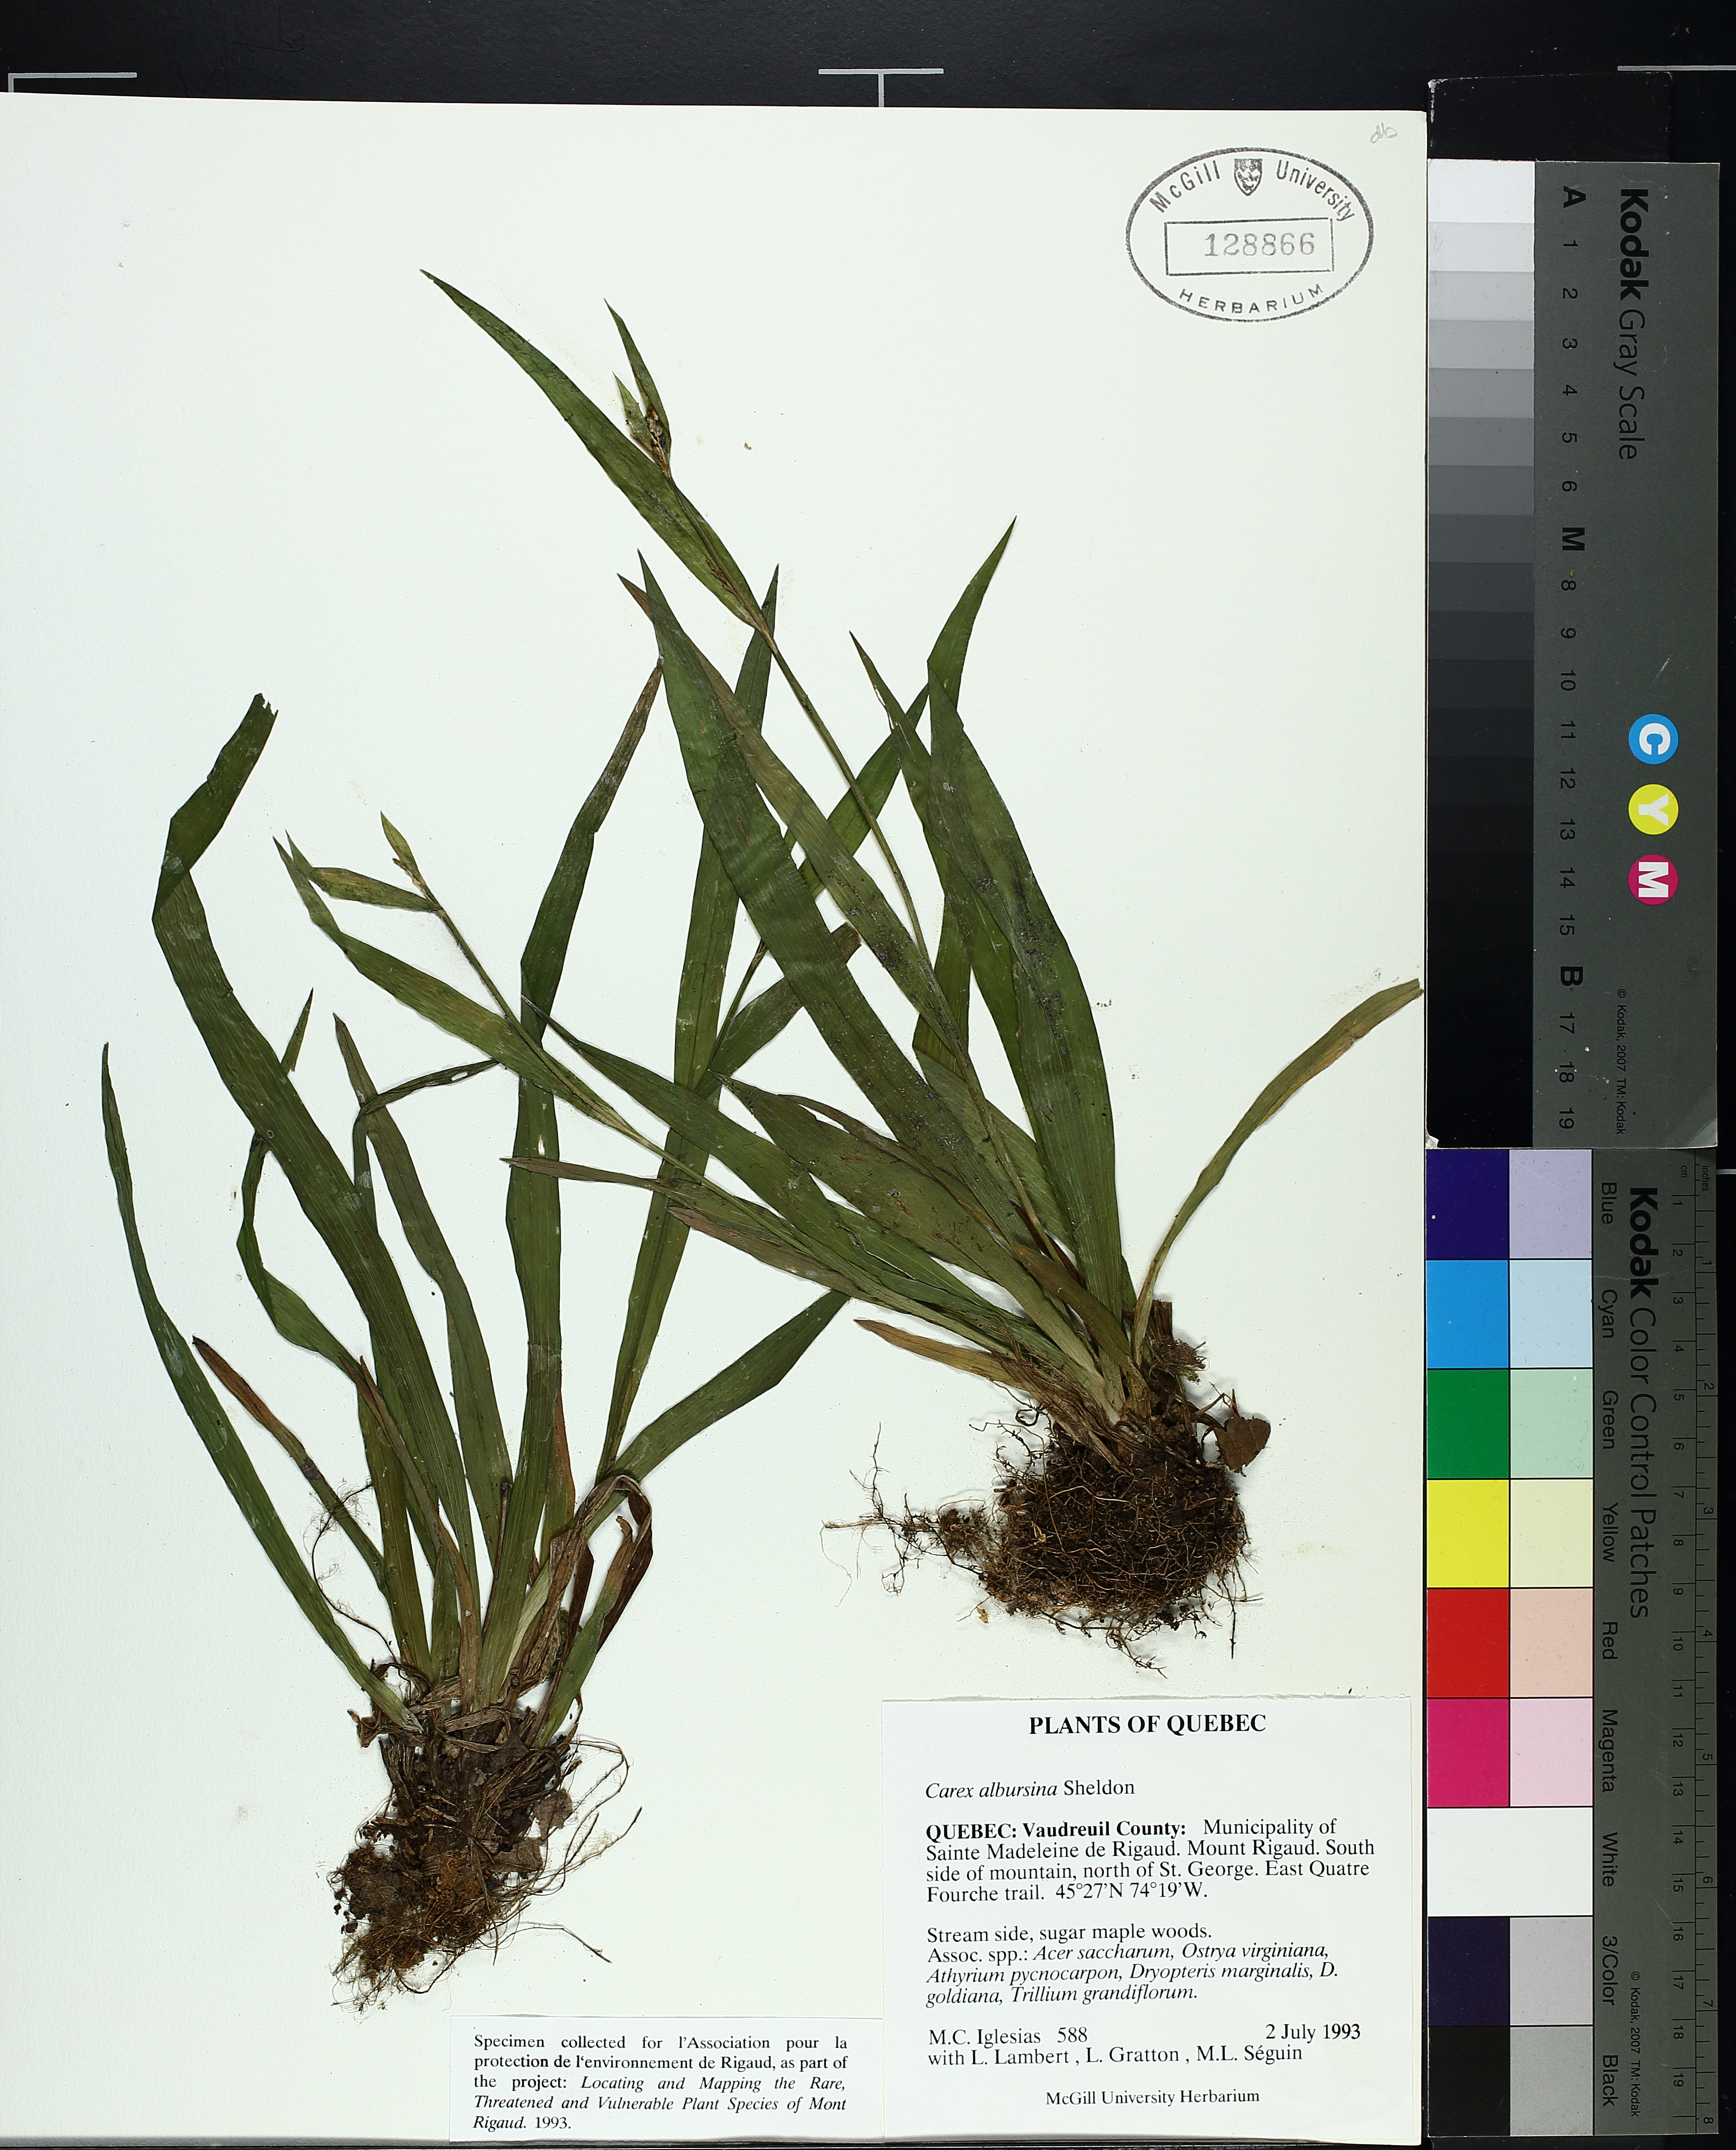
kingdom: Plantae
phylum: Tracheophyta
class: Liliopsida
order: Poales
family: Cyperaceae
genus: Carex
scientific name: Carex albursina
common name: Blunt-scale wood sedge
